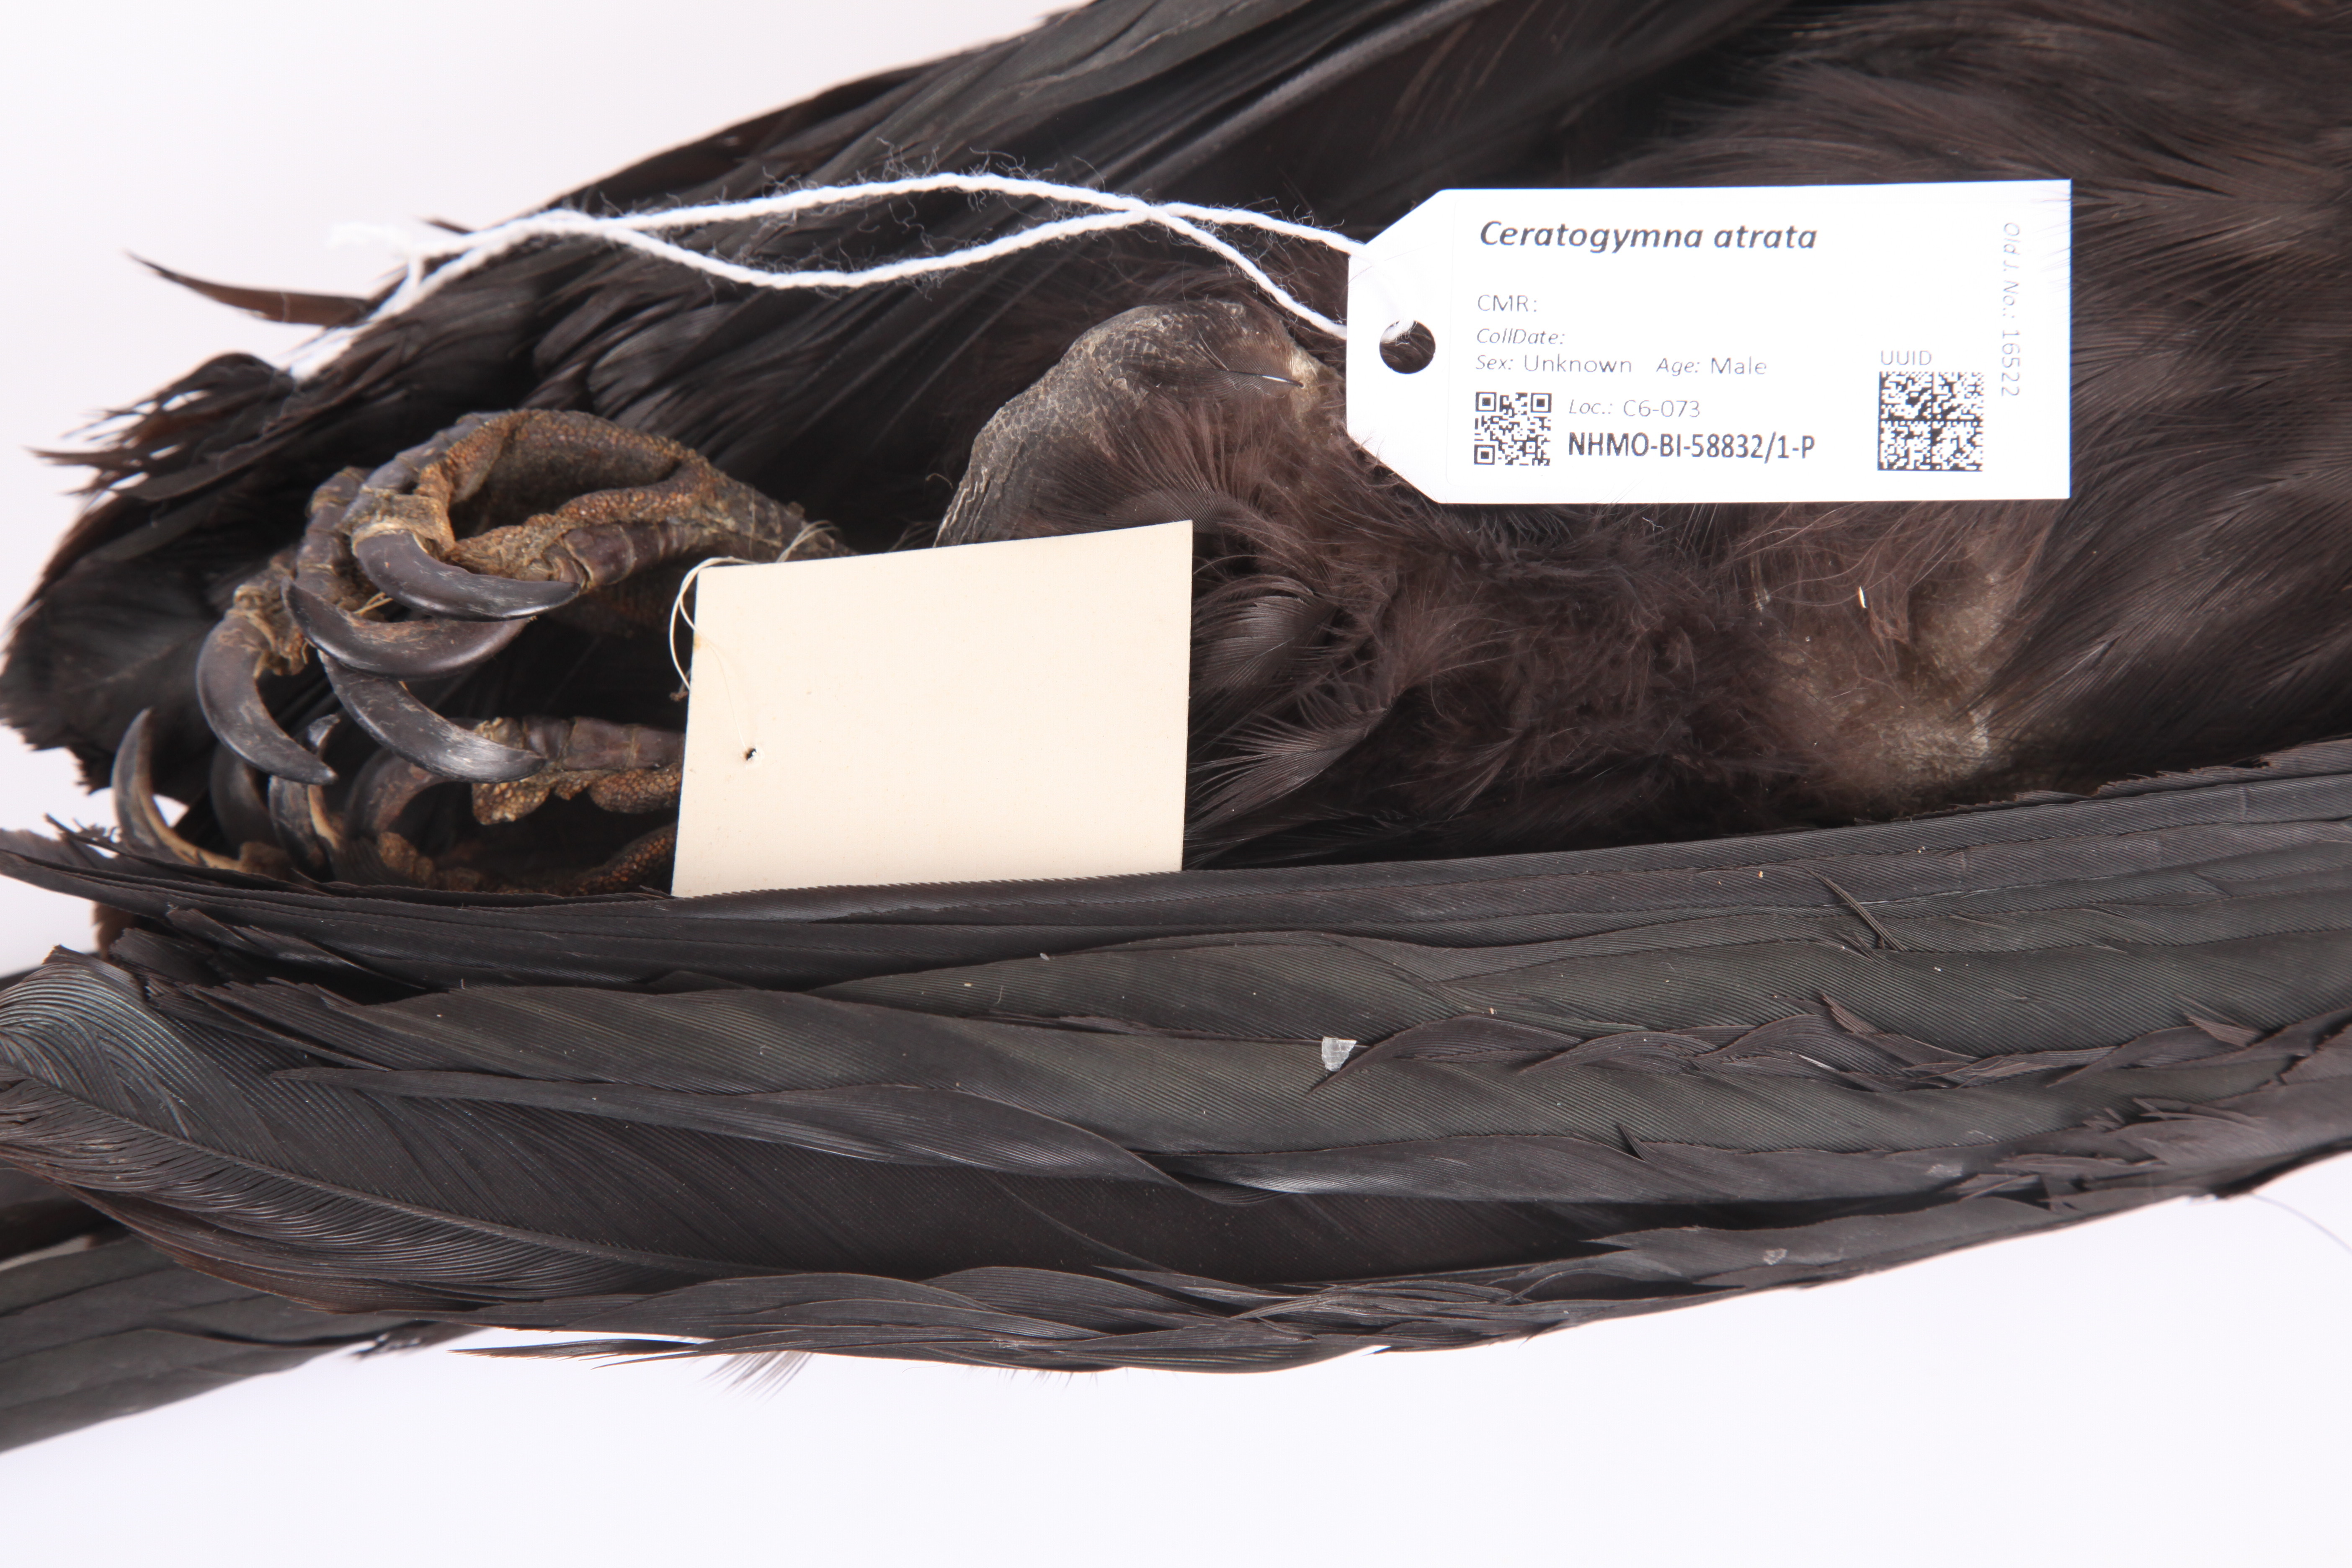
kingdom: Animalia
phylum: Chordata
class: Aves
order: Bucerotiformes
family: Bucerotidae
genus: Ceratogymna
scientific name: Ceratogymna atrata
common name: Black-casqued hornbill
